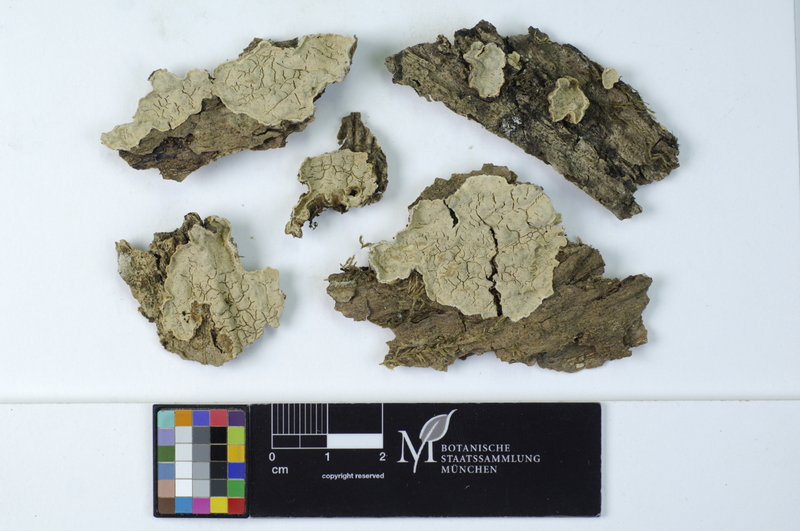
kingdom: Plantae
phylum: Tracheophyta
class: Magnoliopsida
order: Fagales
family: Fagaceae
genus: Quercus
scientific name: Quercus
